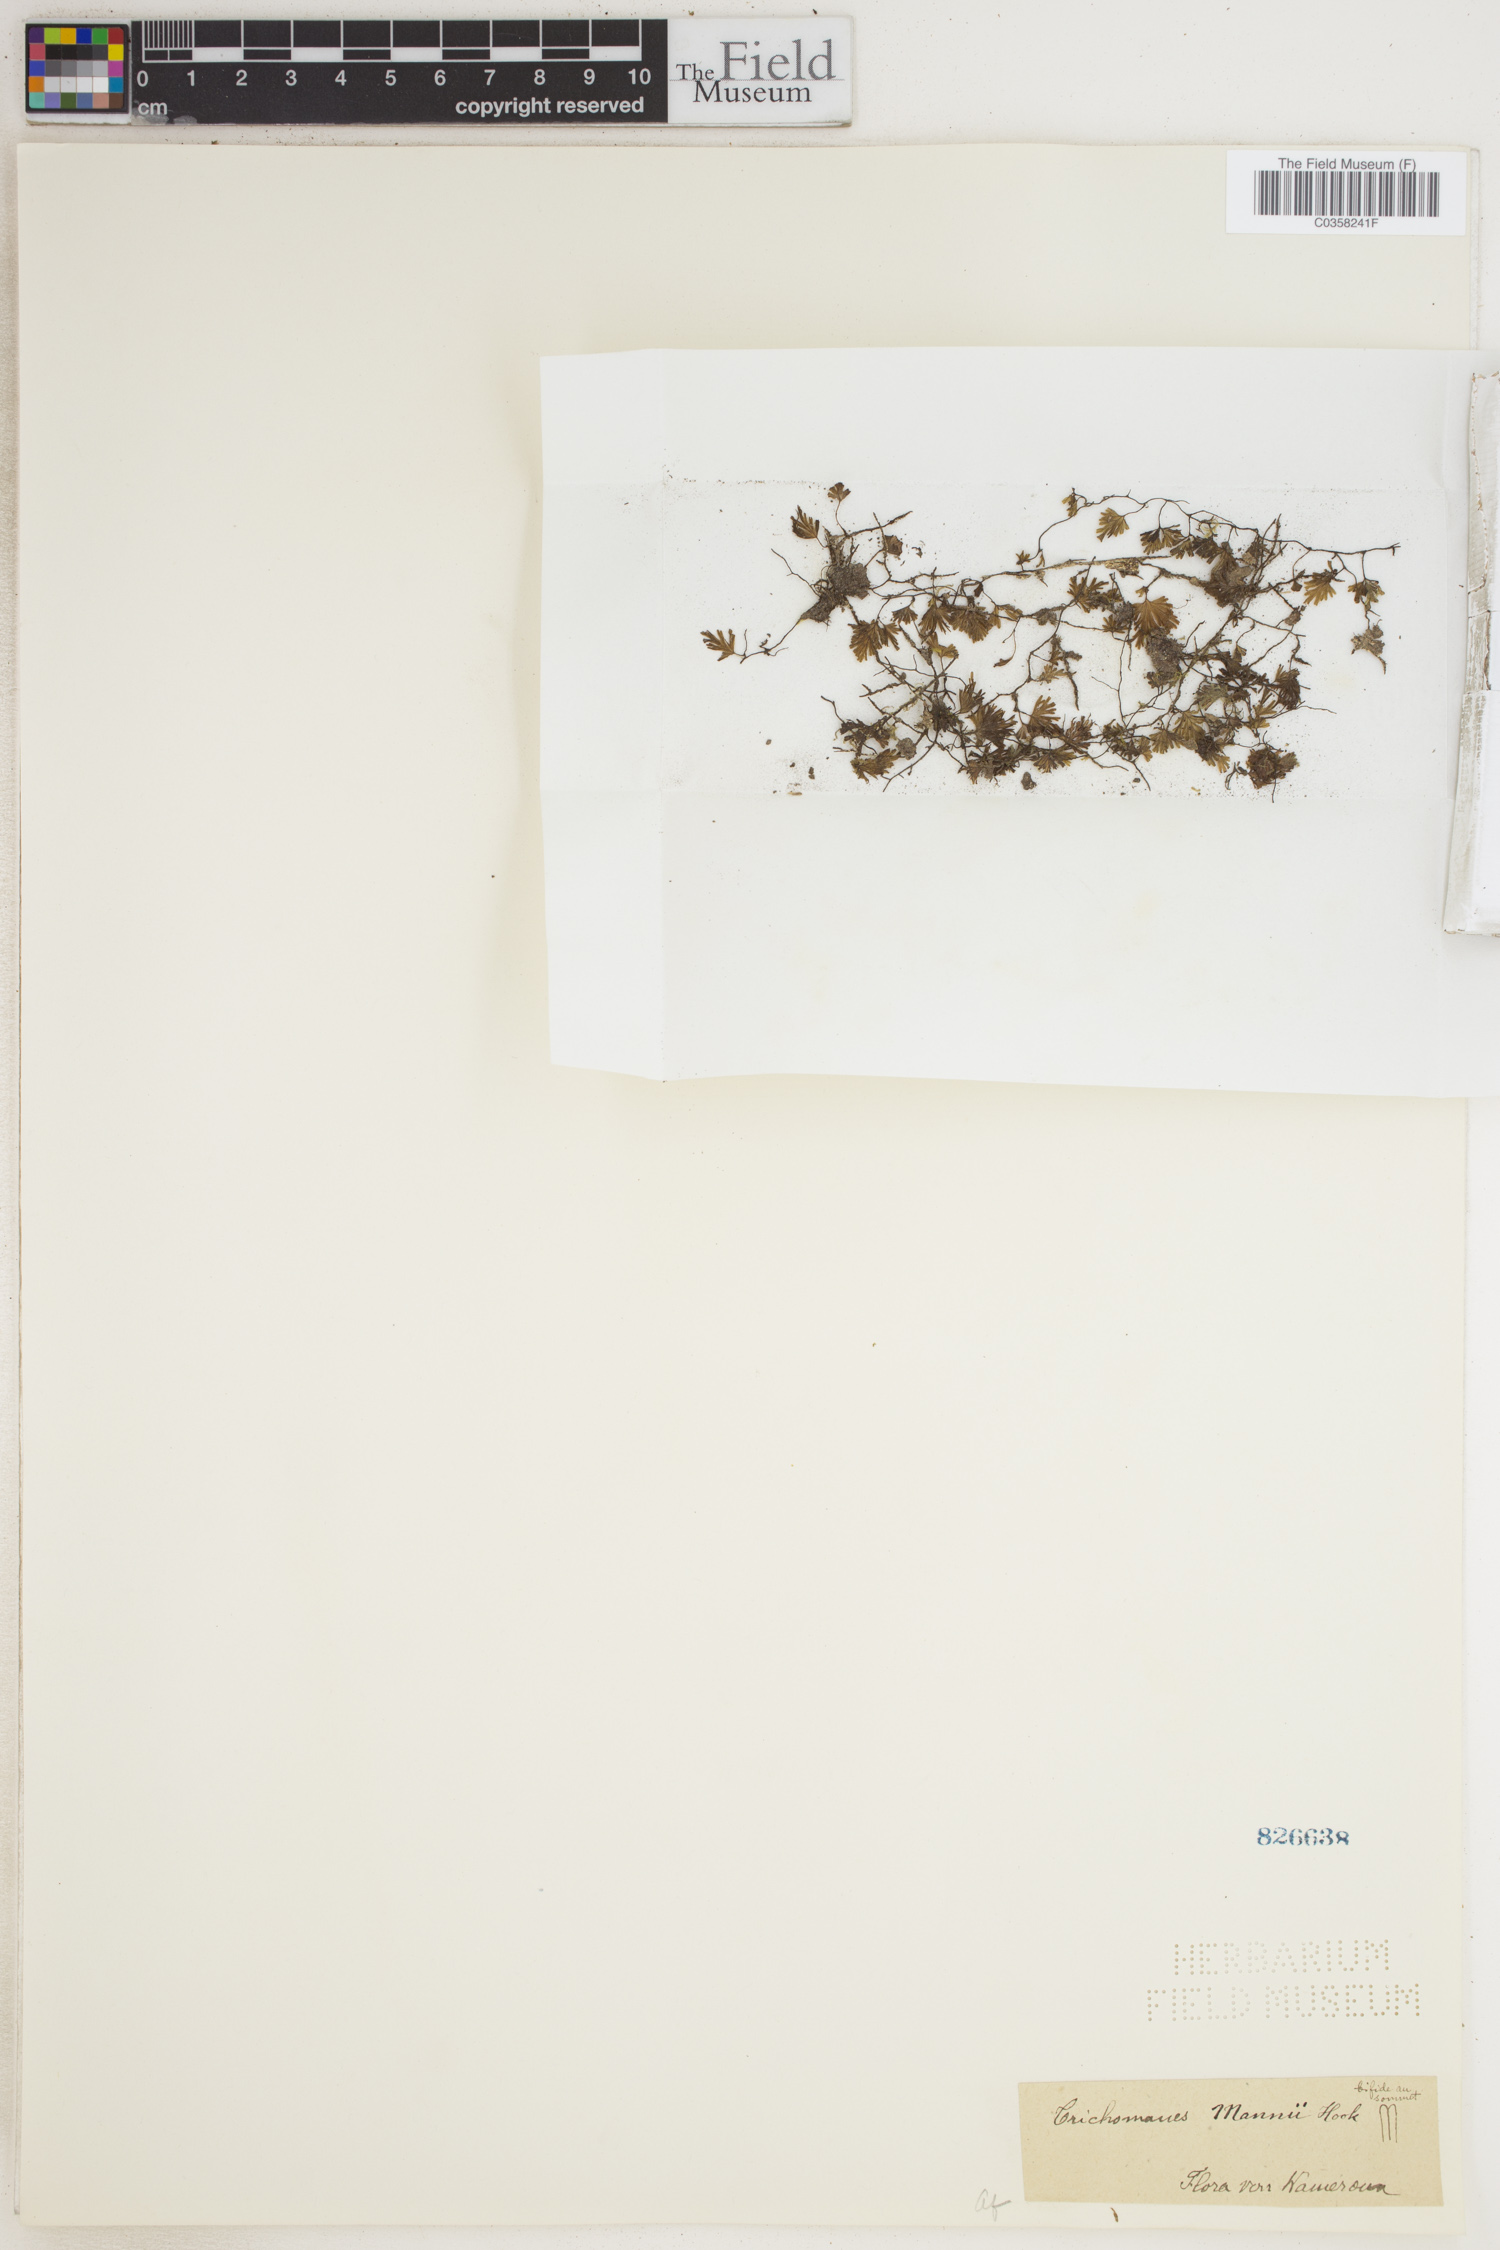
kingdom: Plantae
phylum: Tracheophyta
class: Polypodiopsida
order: Hymenophyllales
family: Hymenophyllaceae
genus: Crepidomanes
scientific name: Crepidomanes parvulum
